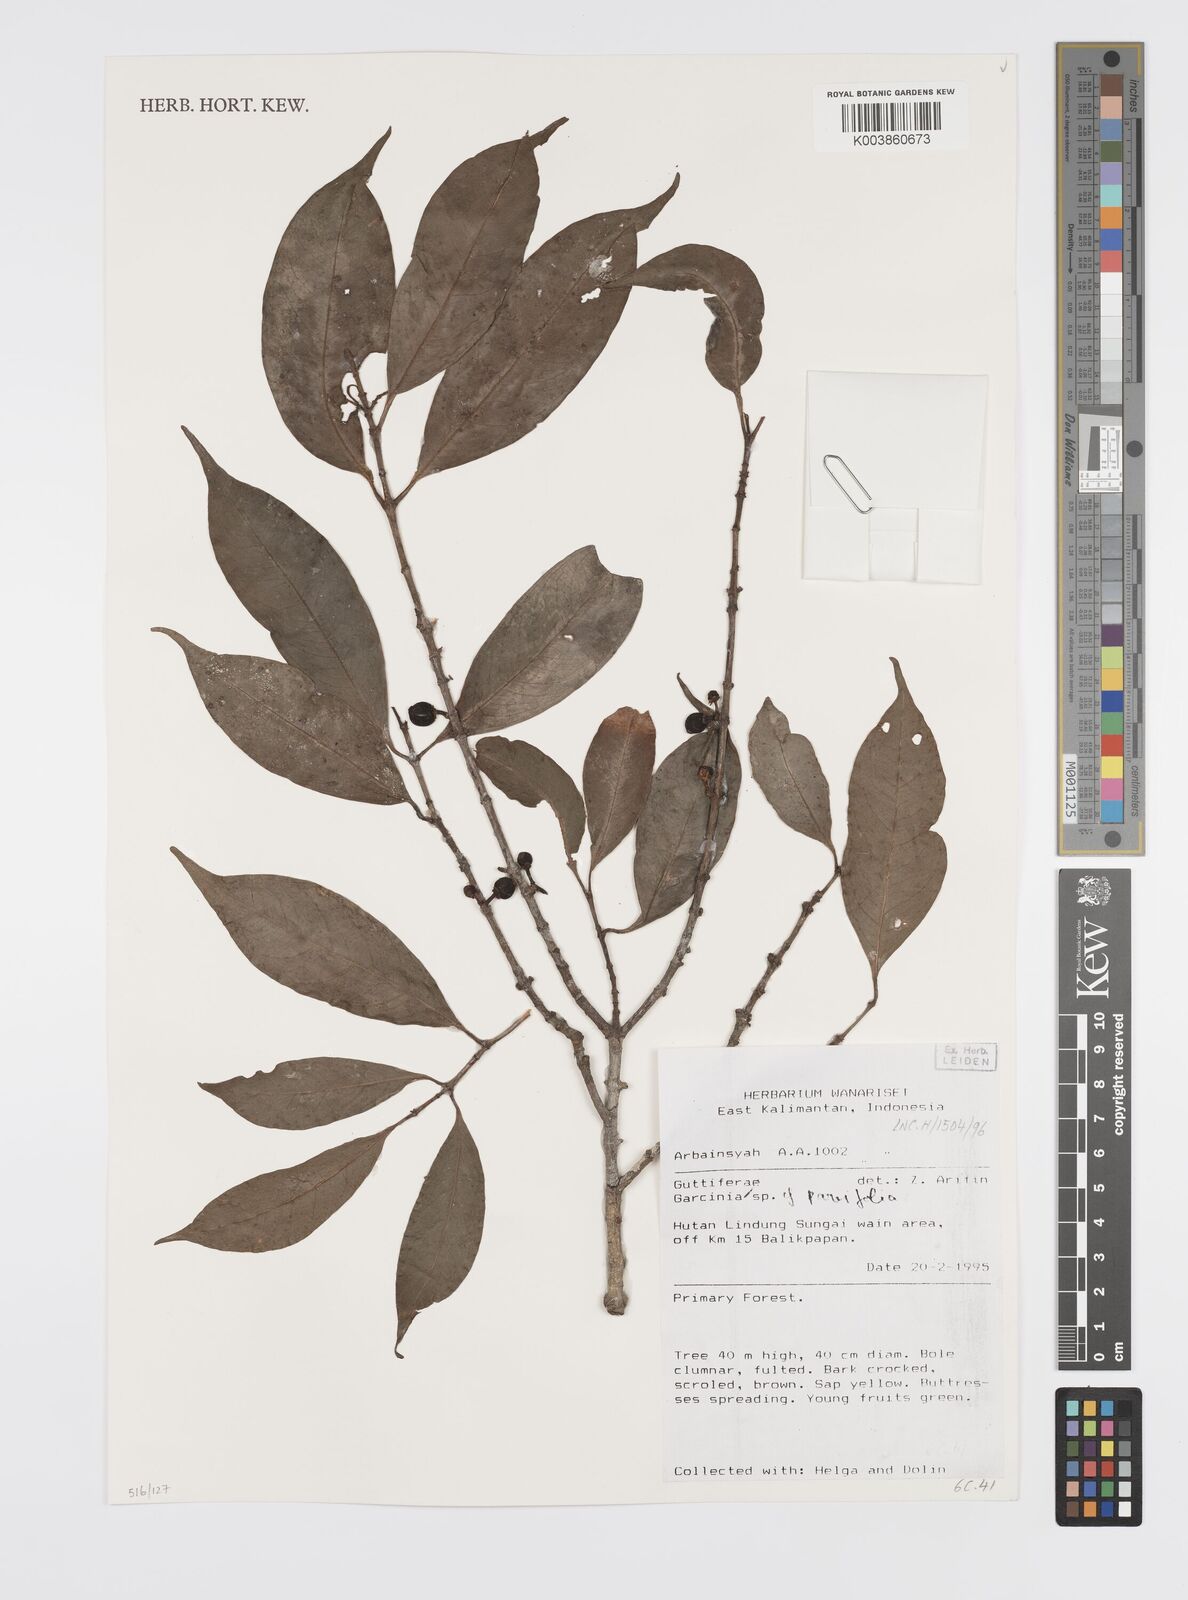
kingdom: Plantae
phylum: Tracheophyta
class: Magnoliopsida
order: Malpighiales
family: Clusiaceae
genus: Garcinia
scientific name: Garcinia parvifolia
